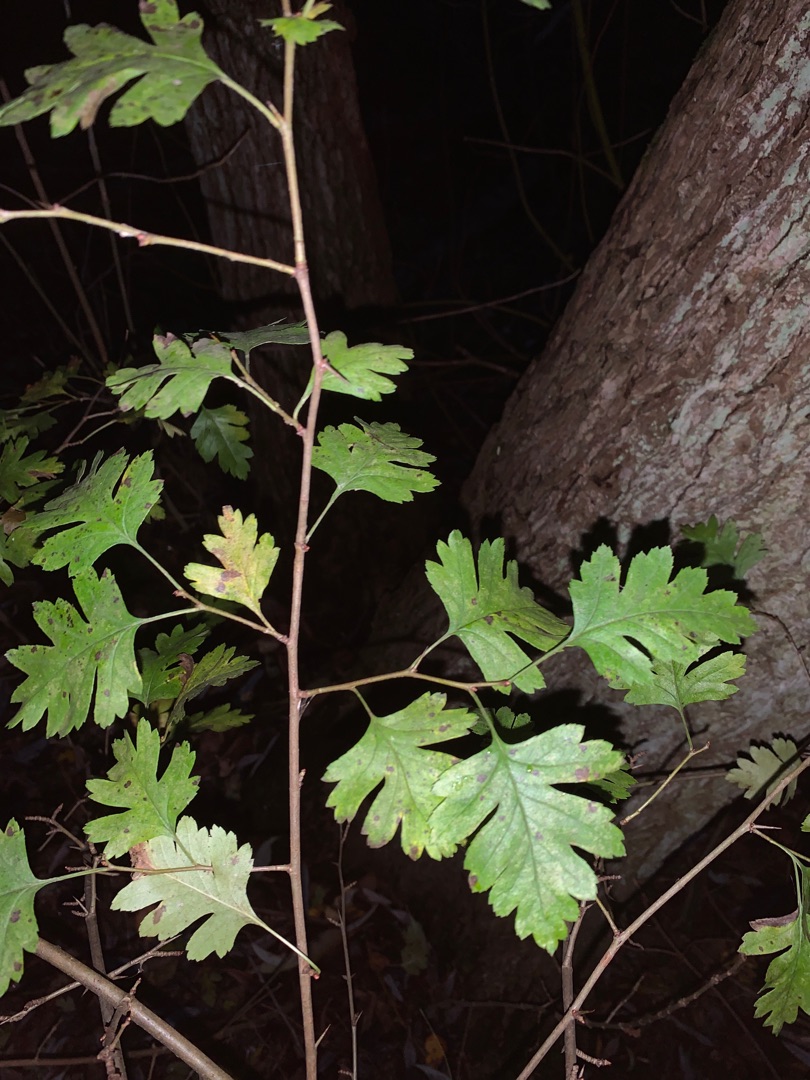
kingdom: Plantae
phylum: Tracheophyta
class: Magnoliopsida
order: Rosales
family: Rosaceae
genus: Crataegus
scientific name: Crataegus monogyna
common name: Engriflet hvidtjørn
